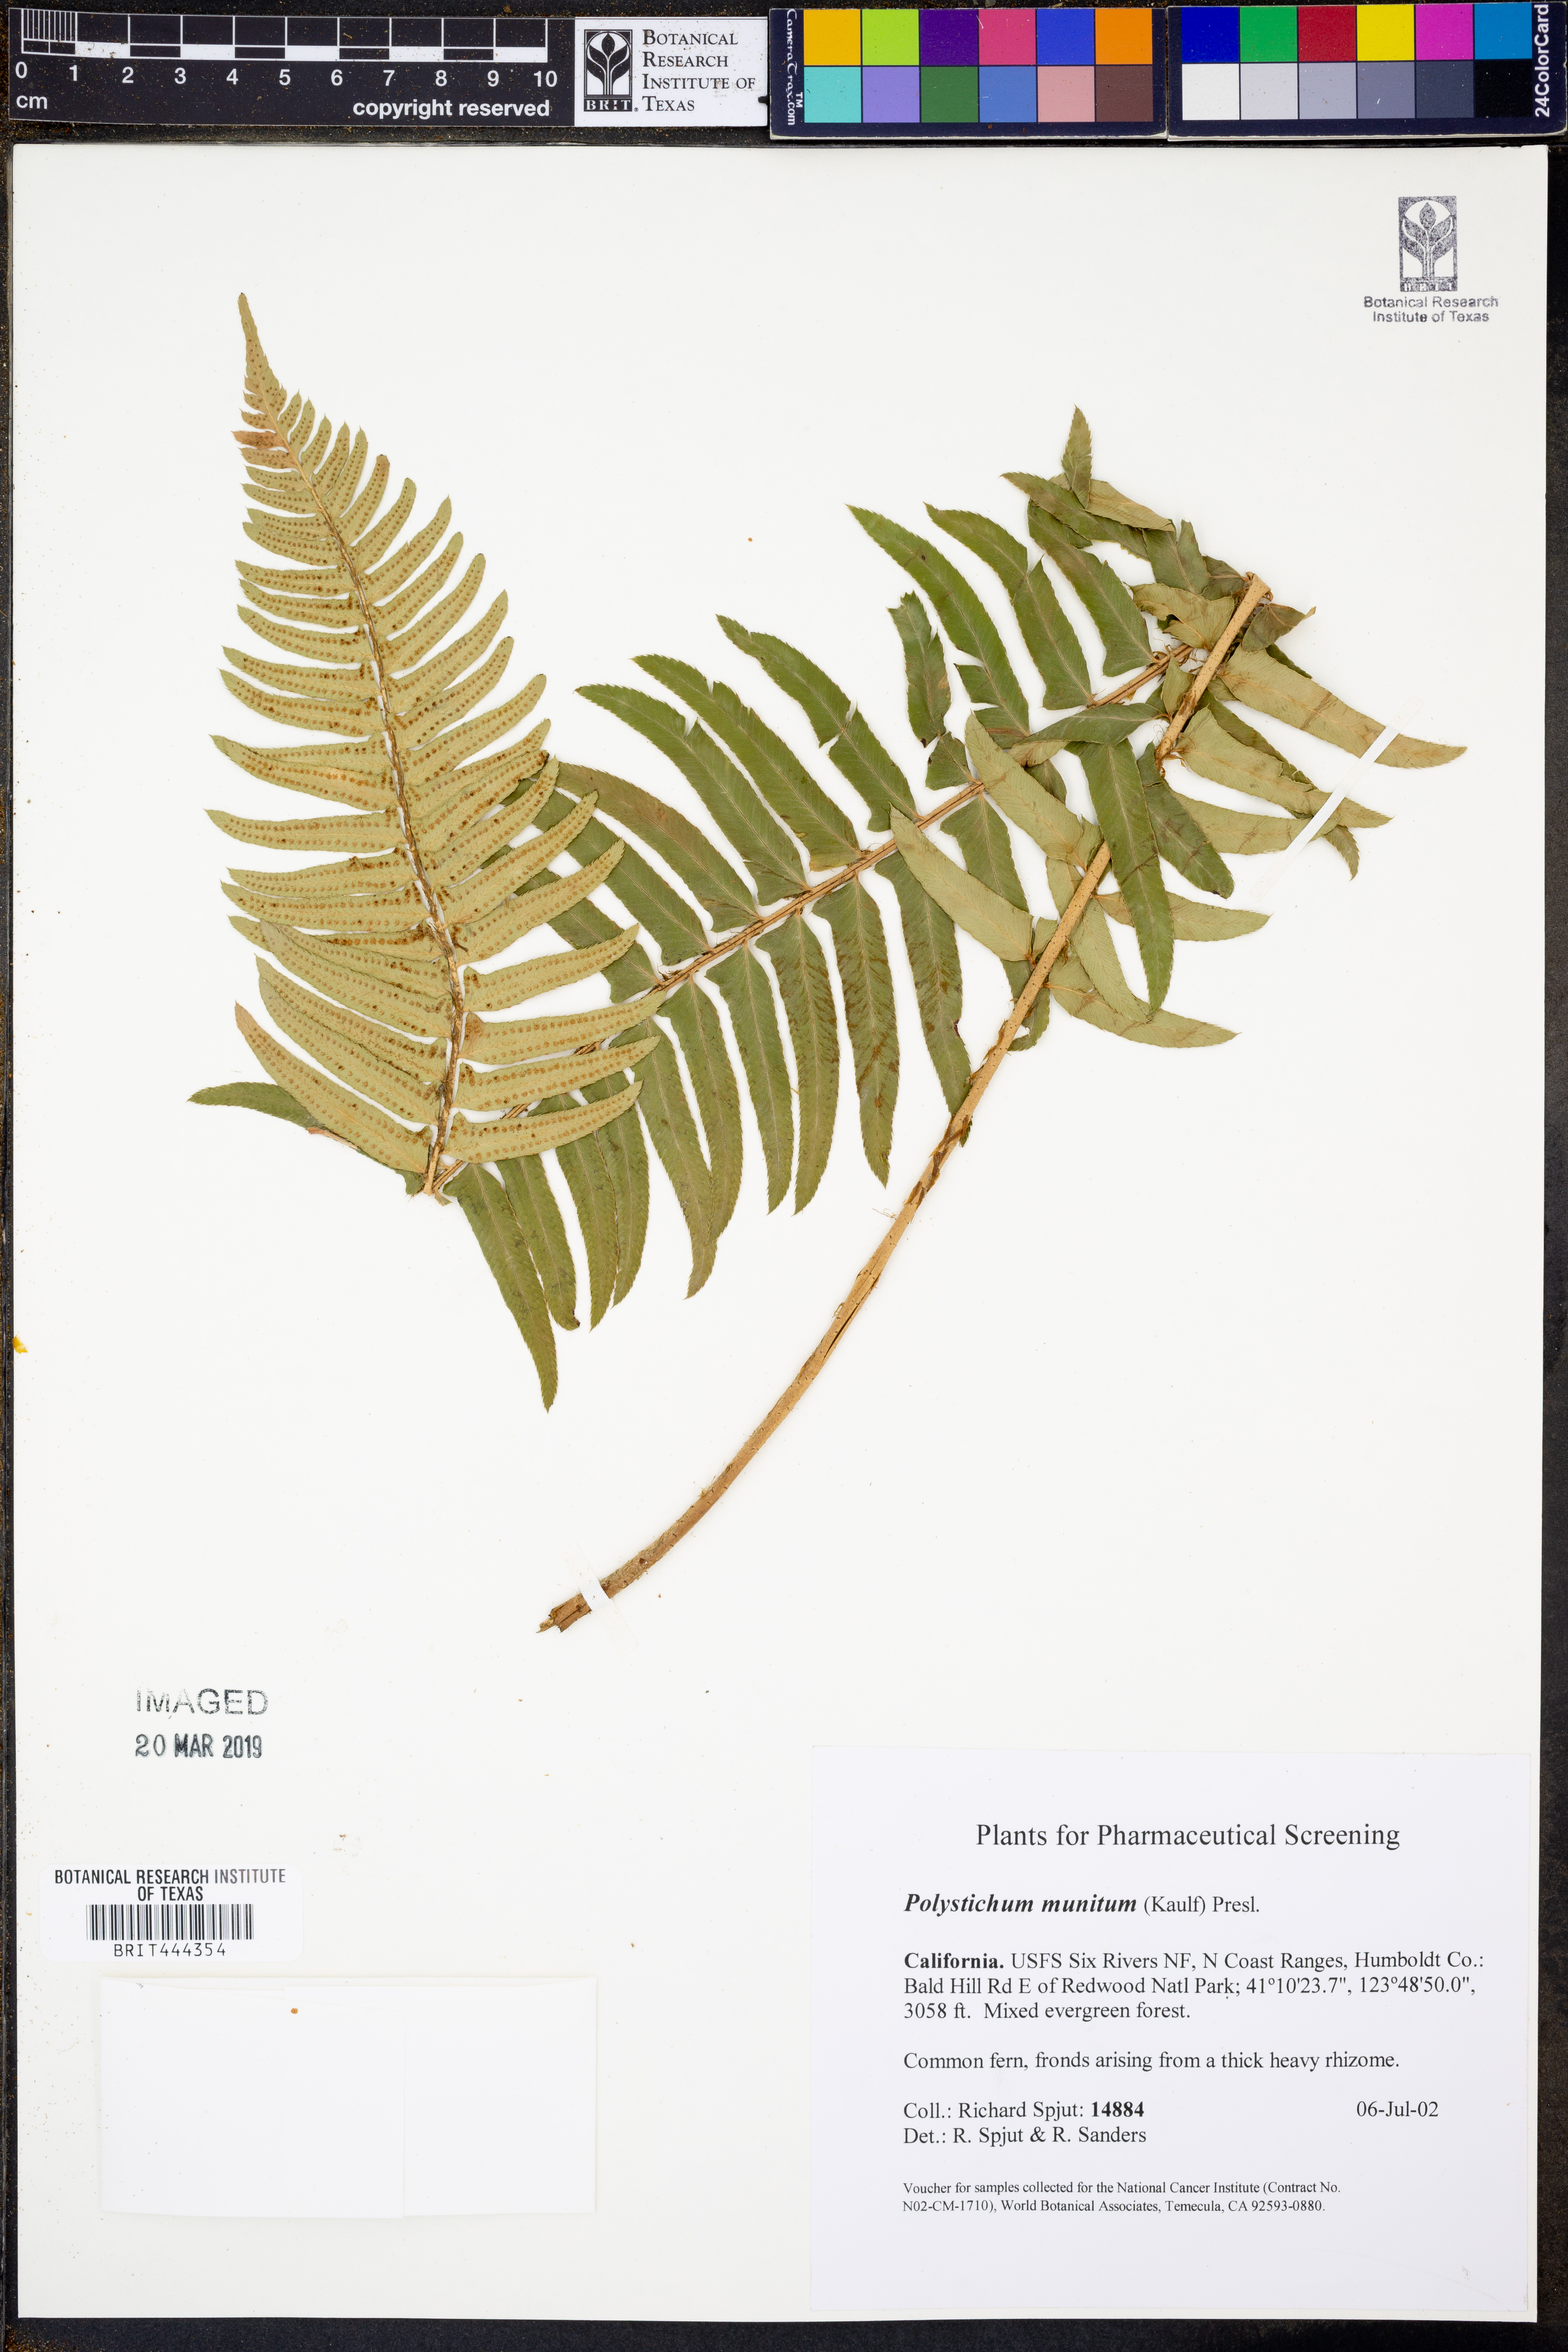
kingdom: Plantae
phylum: Tracheophyta
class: Polypodiopsida
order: Polypodiales
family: Dryopteridaceae
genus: Polystichum
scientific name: Polystichum munitum
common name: Western sword-fern
